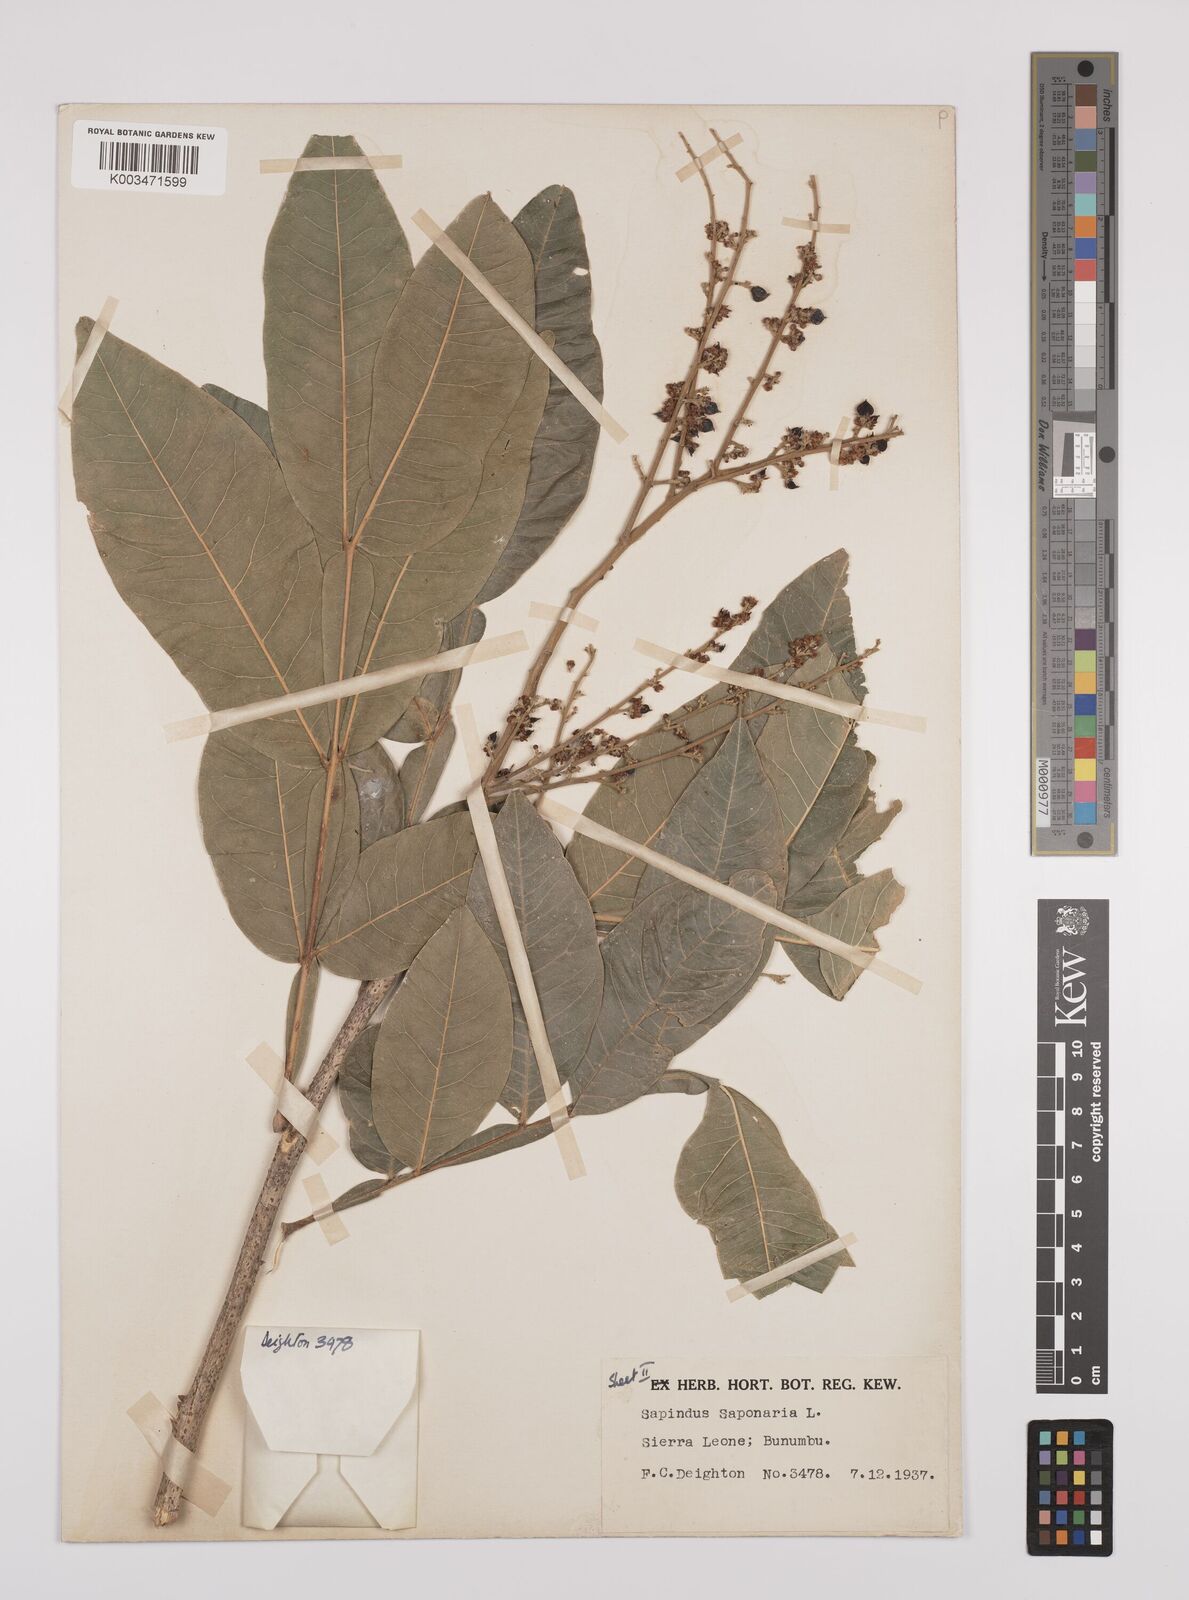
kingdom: Plantae
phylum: Tracheophyta
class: Magnoliopsida
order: Sapindales
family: Sapindaceae
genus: Sapindus
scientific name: Sapindus
